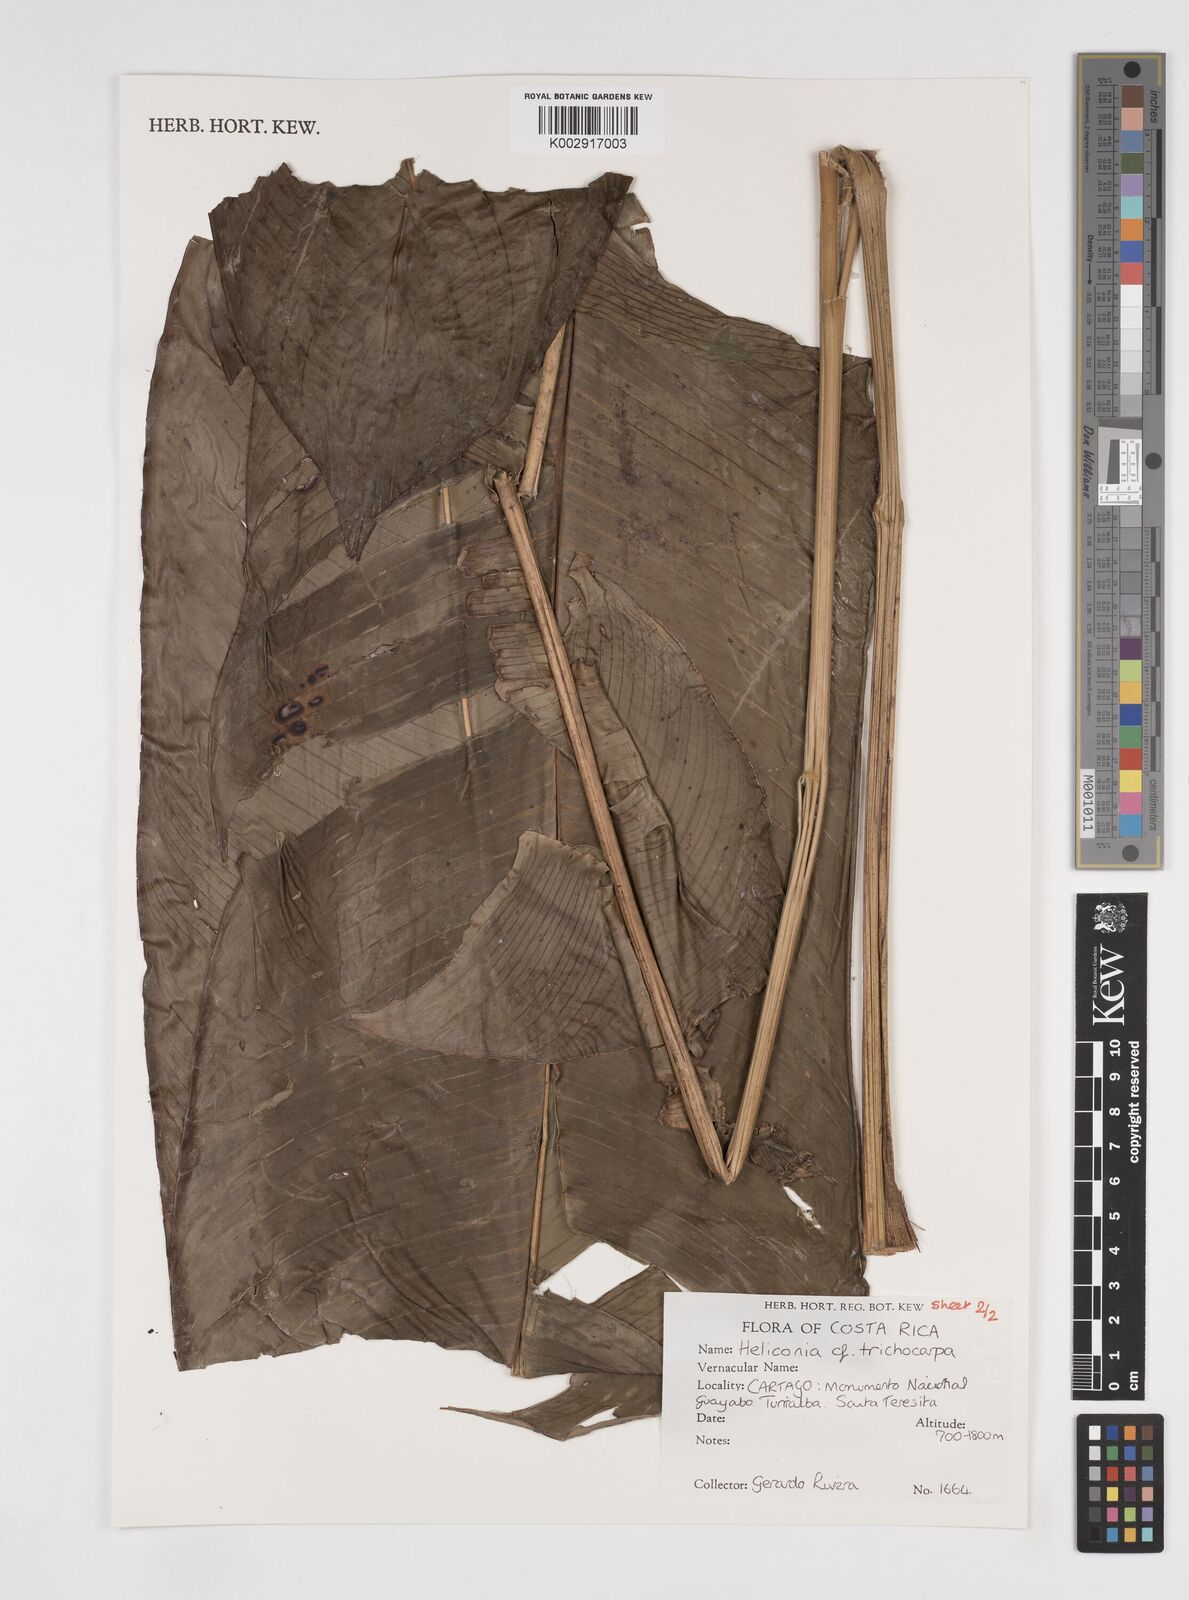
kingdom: Plantae
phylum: Tracheophyta
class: Liliopsida
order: Zingiberales
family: Heliconiaceae
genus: Heliconia
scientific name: Heliconia trichocarpa
